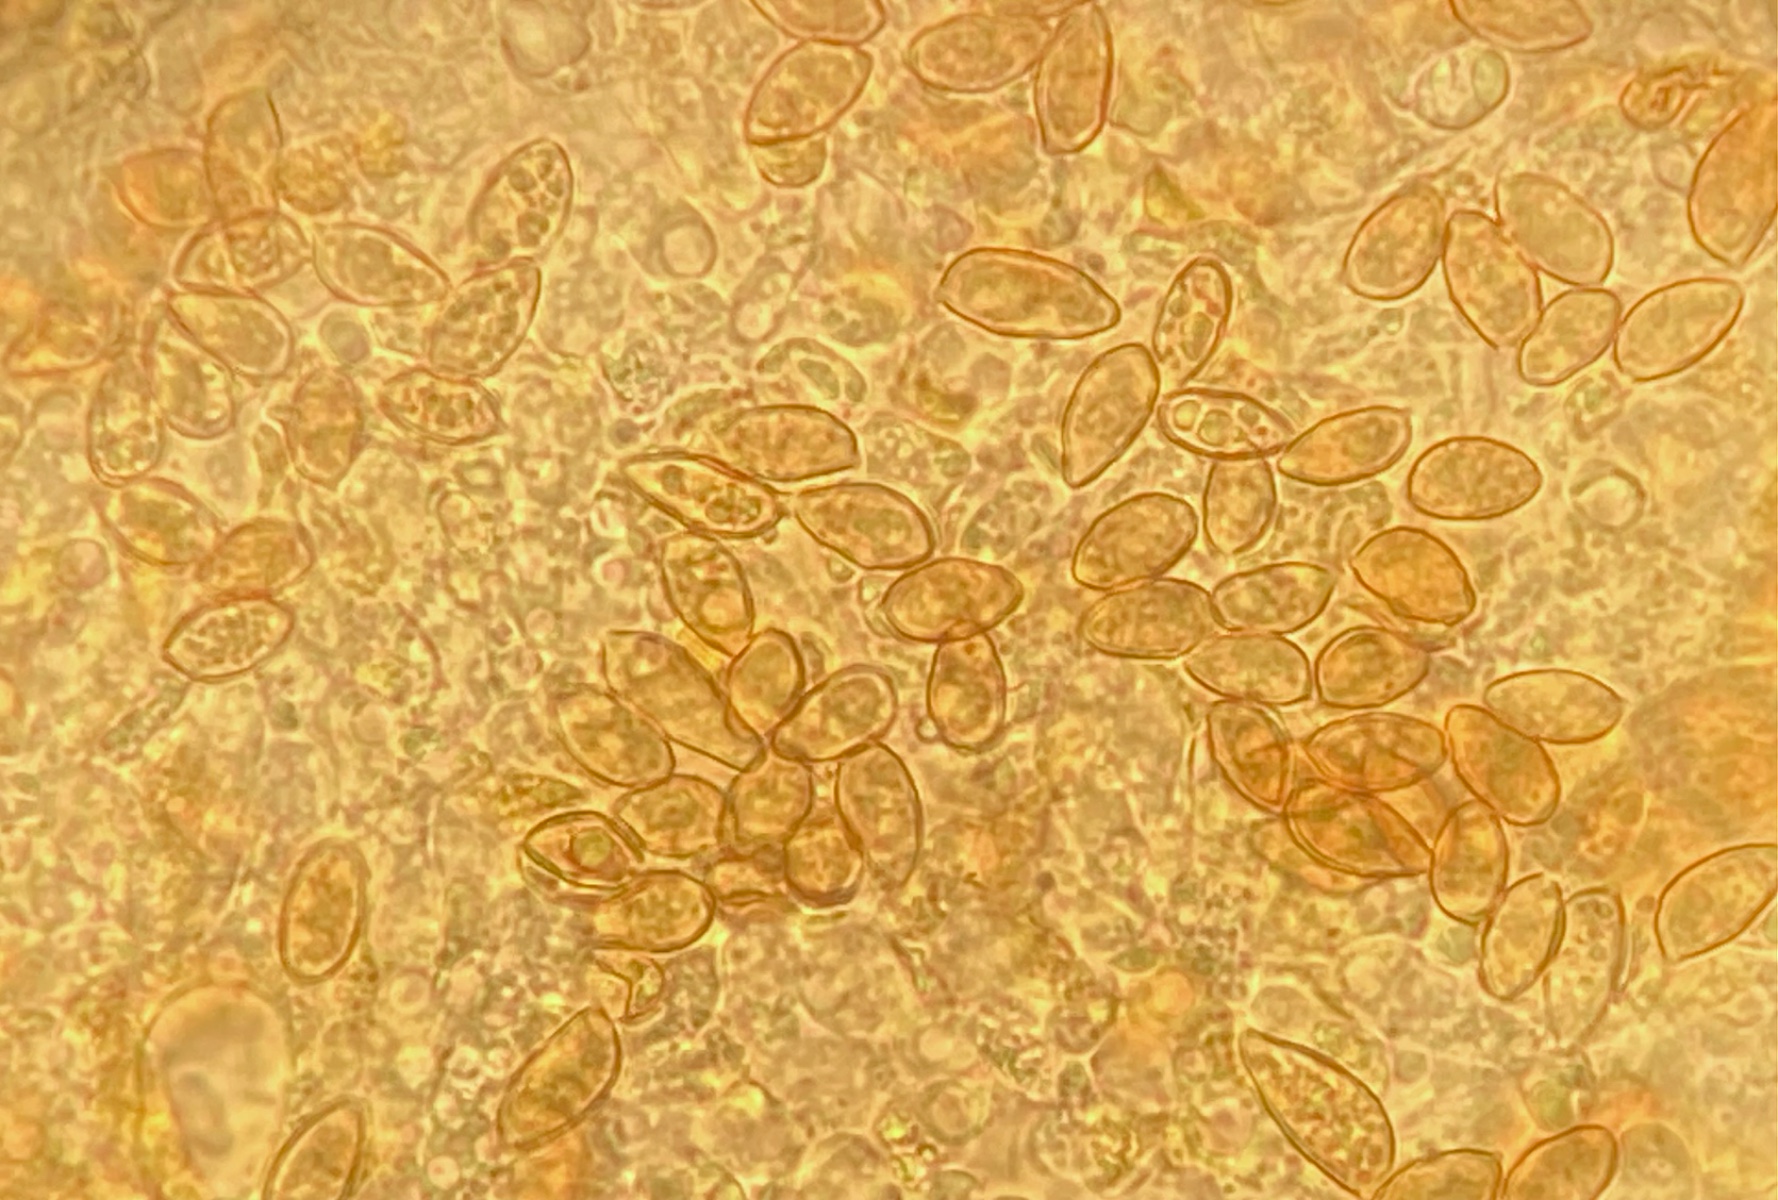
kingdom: Fungi
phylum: Basidiomycota
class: Agaricomycetes
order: Agaricales
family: Hymenogastraceae
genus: Galerina
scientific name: Galerina jaapii
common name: hvidbæltet hjelmhat
